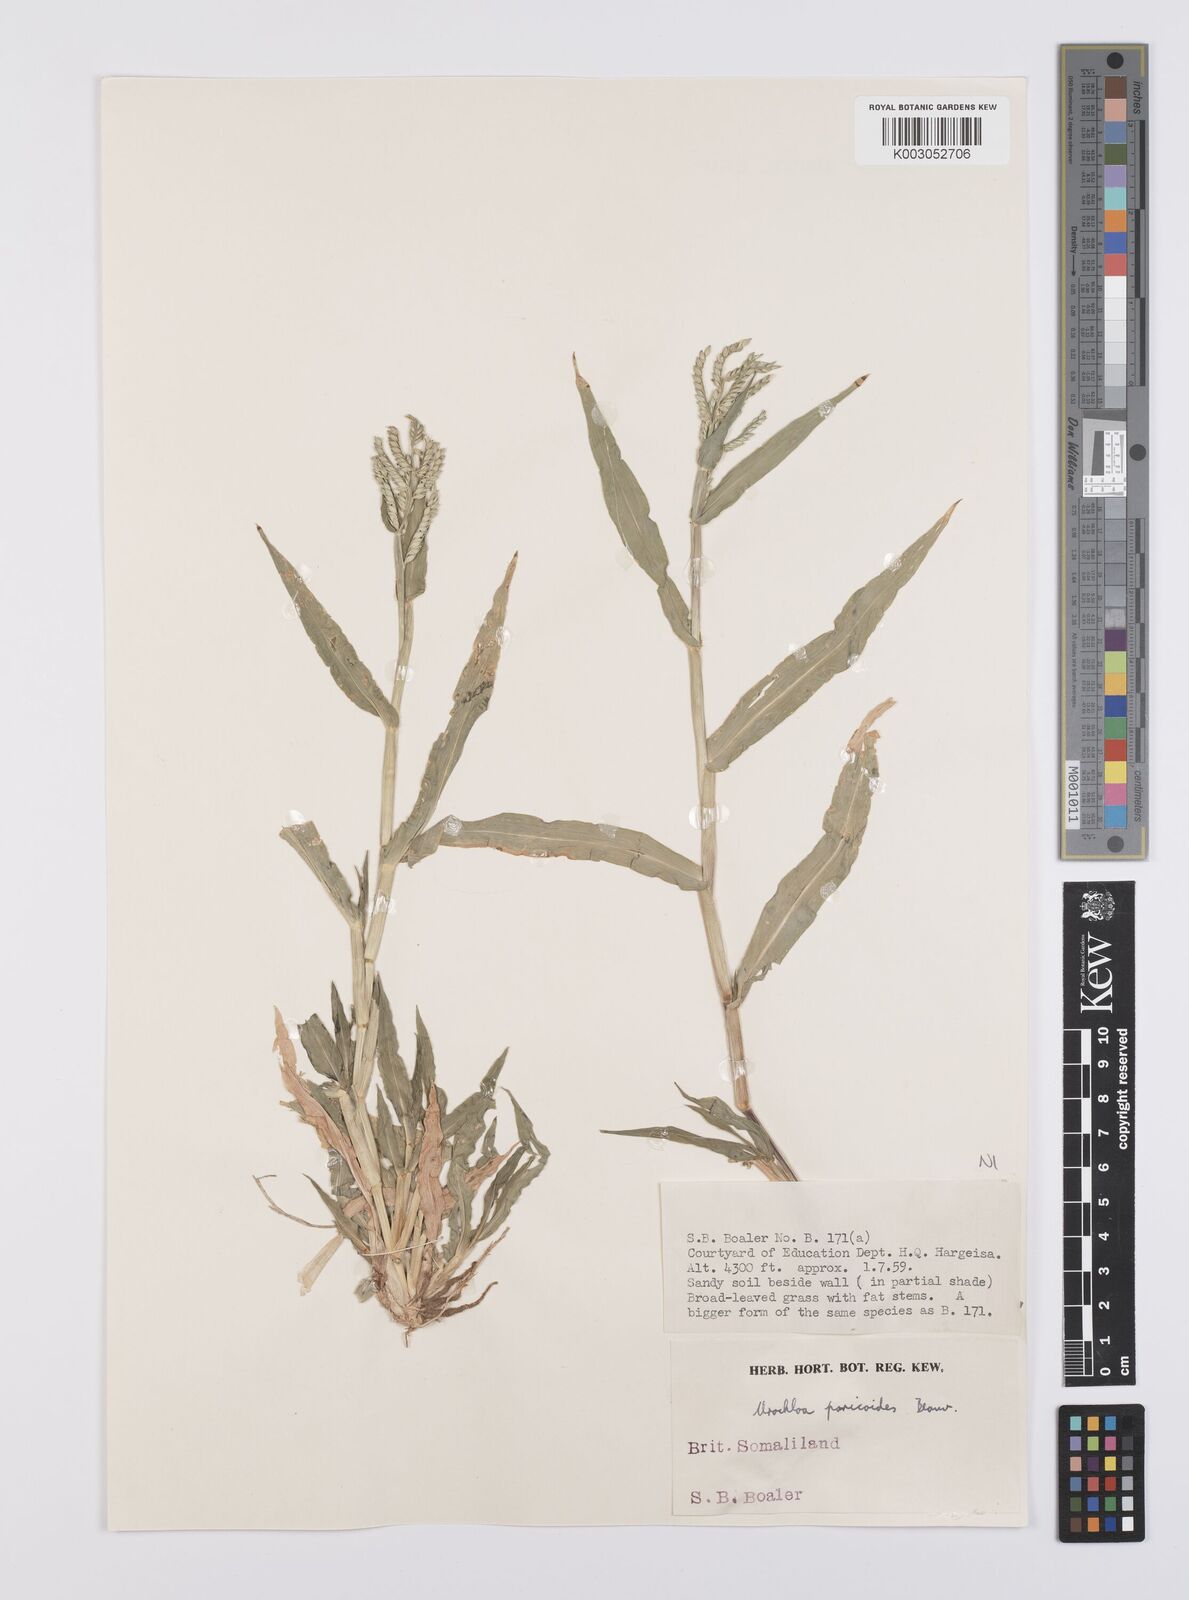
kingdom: Plantae
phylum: Tracheophyta
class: Liliopsida
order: Poales
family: Poaceae
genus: Urochloa
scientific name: Urochloa panicoides
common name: Sharp-flowered signal-grass
